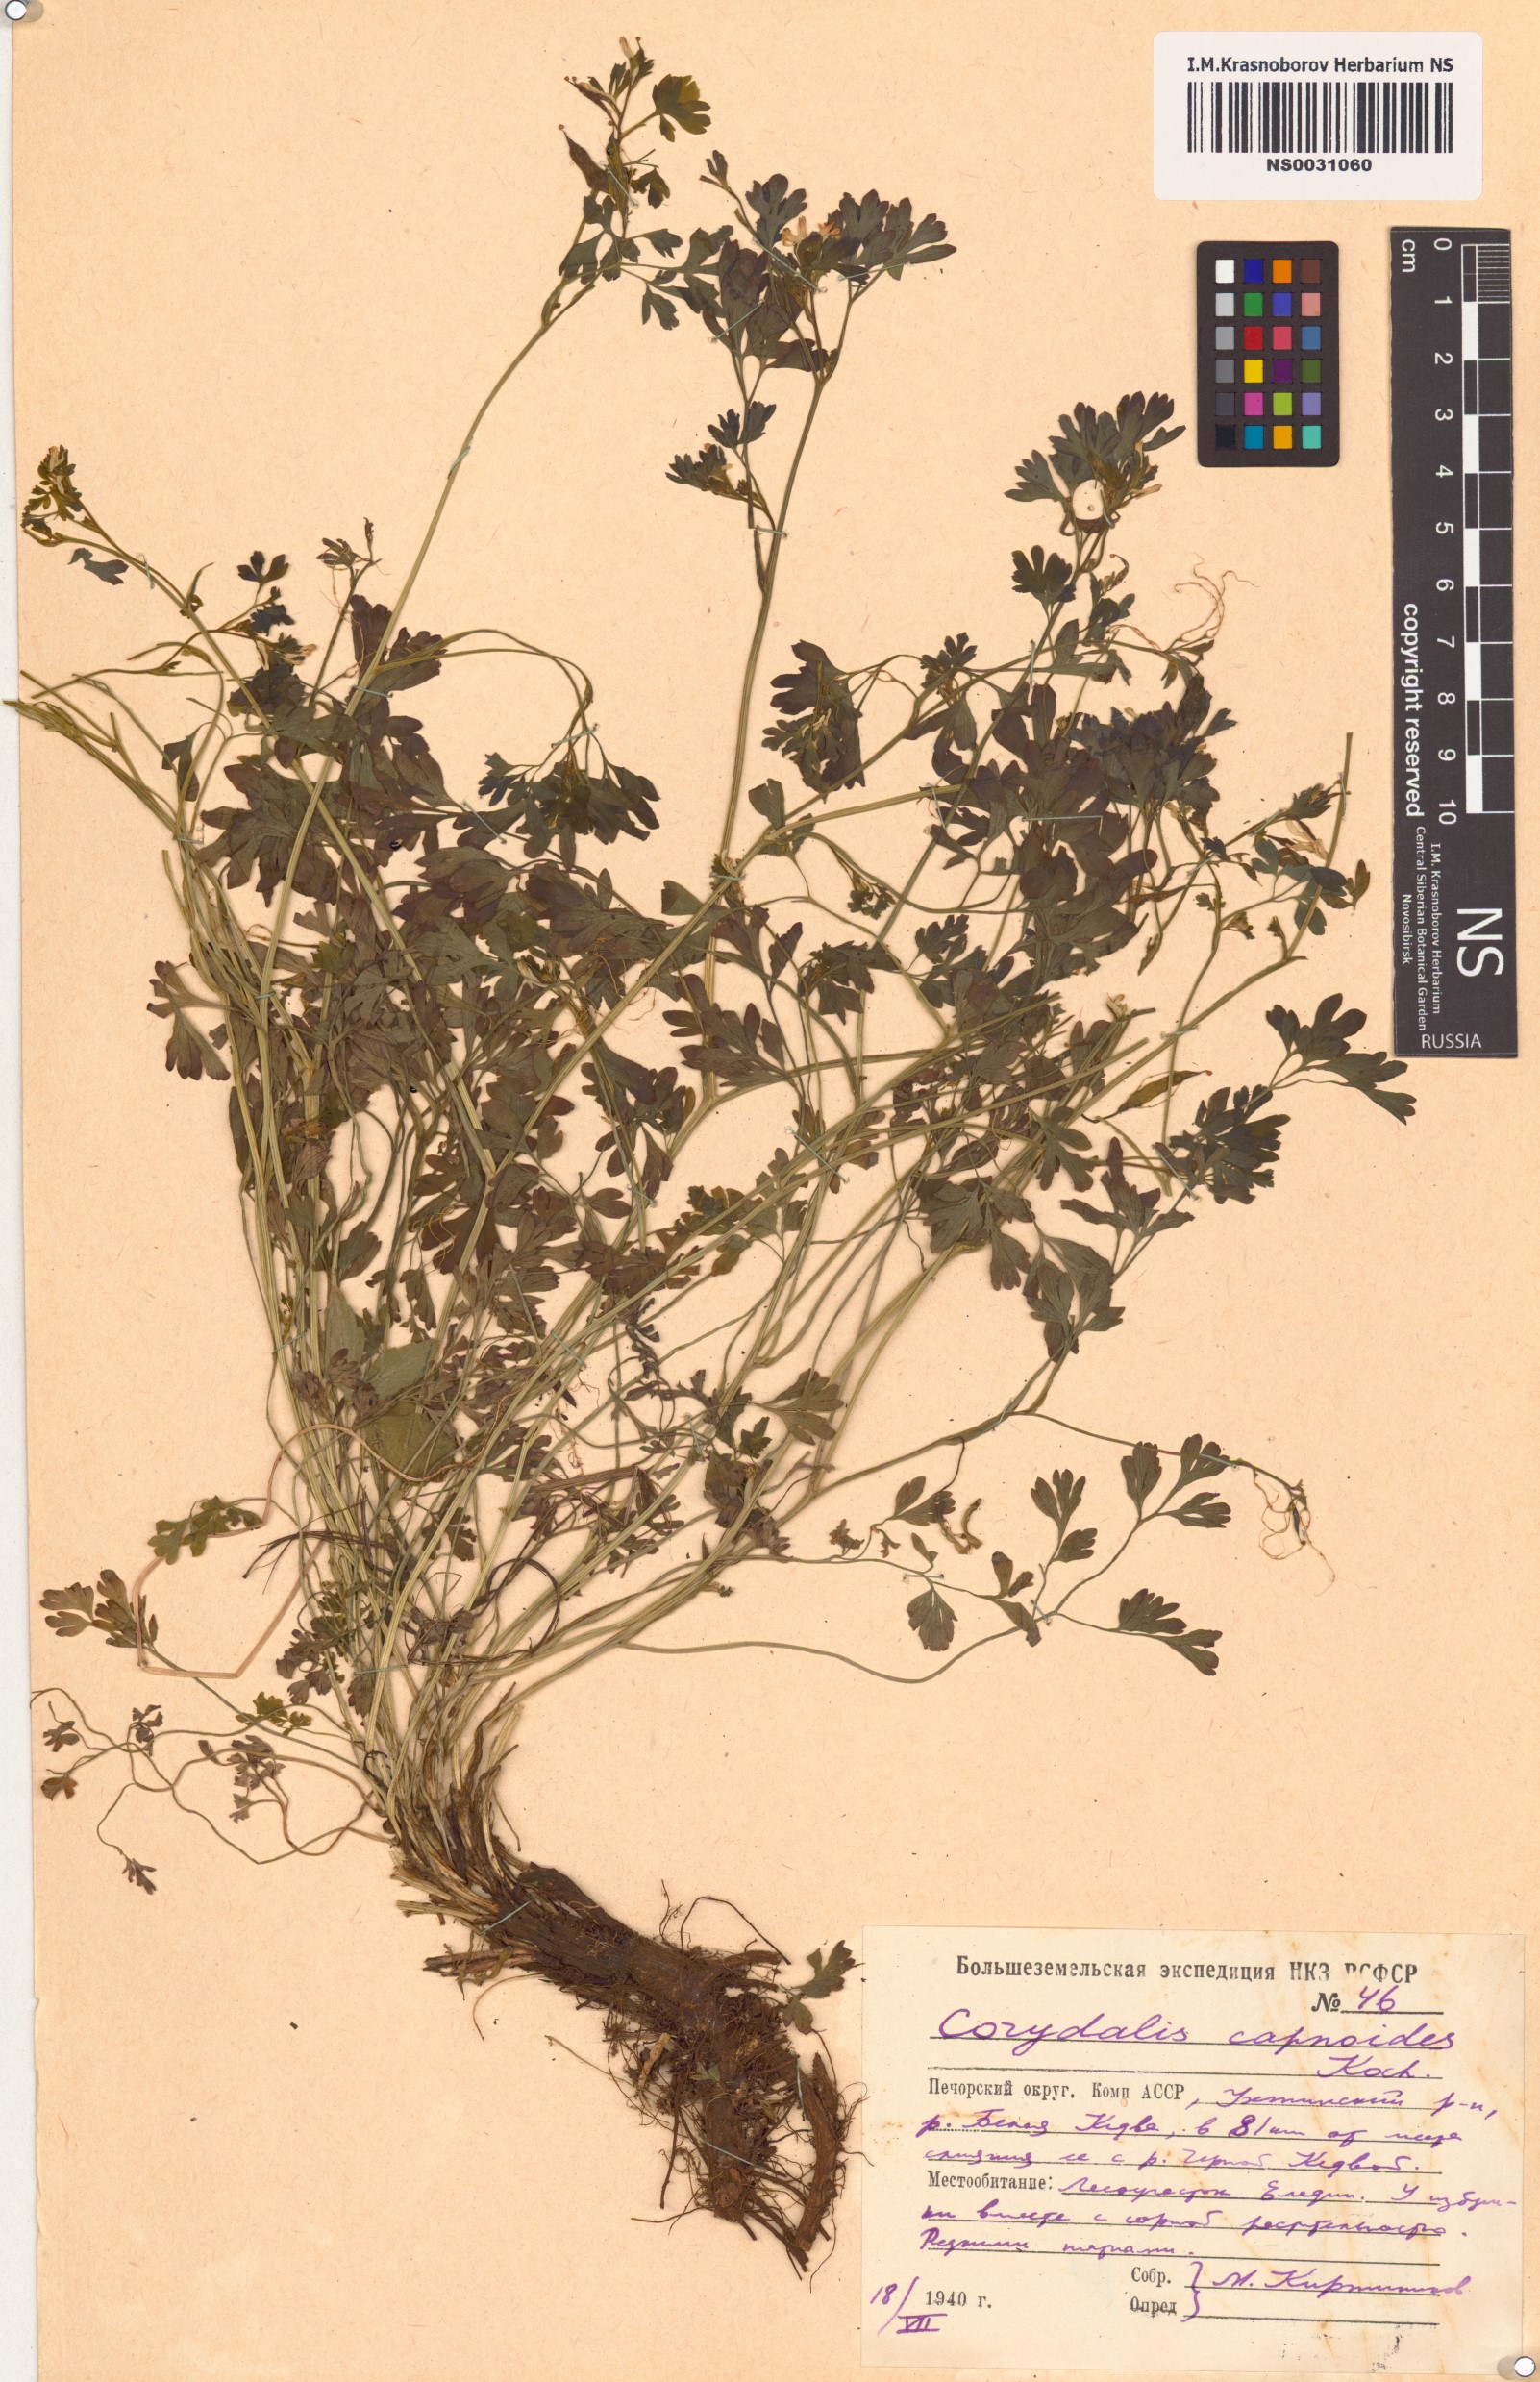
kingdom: Plantae
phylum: Tracheophyta
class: Magnoliopsida
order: Ranunculales
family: Papaveraceae
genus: Corydalis
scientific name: Corydalis capnoides
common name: Beaked corydalis
